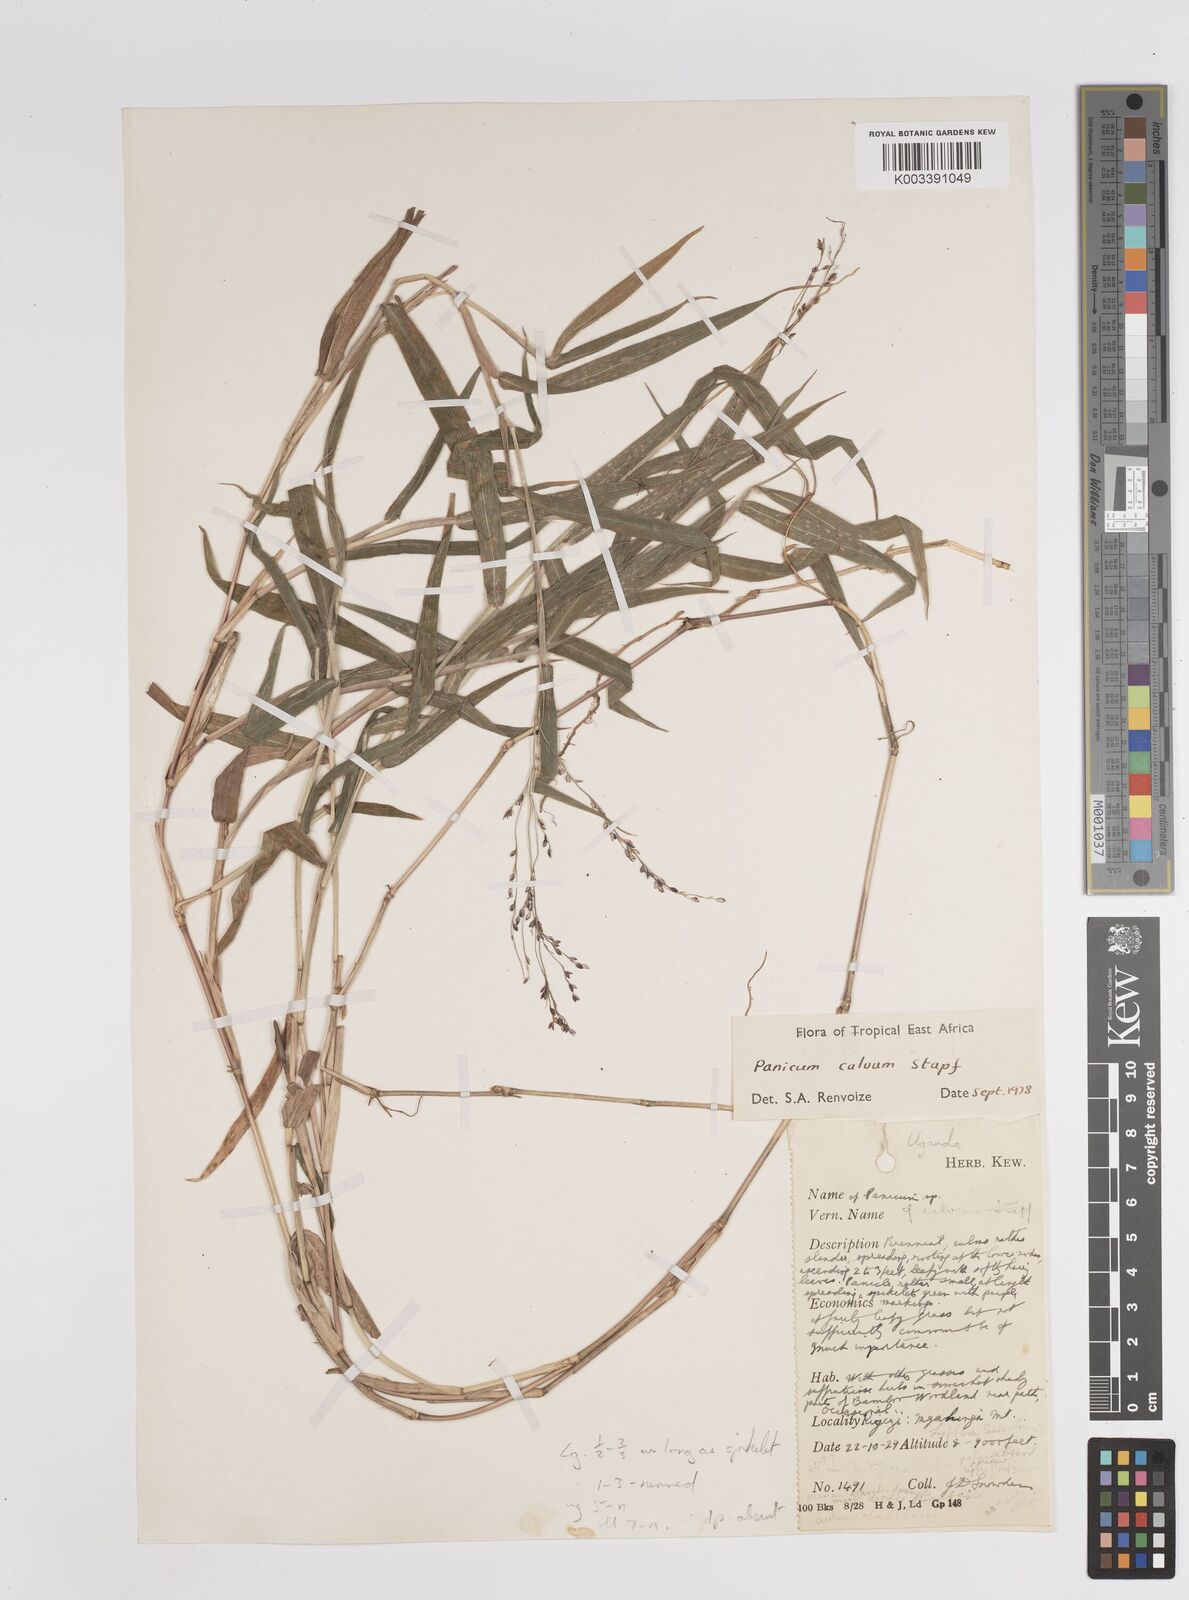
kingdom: Plantae
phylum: Tracheophyta
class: Liliopsida
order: Poales
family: Poaceae
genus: Panicum
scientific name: Panicum calvum
